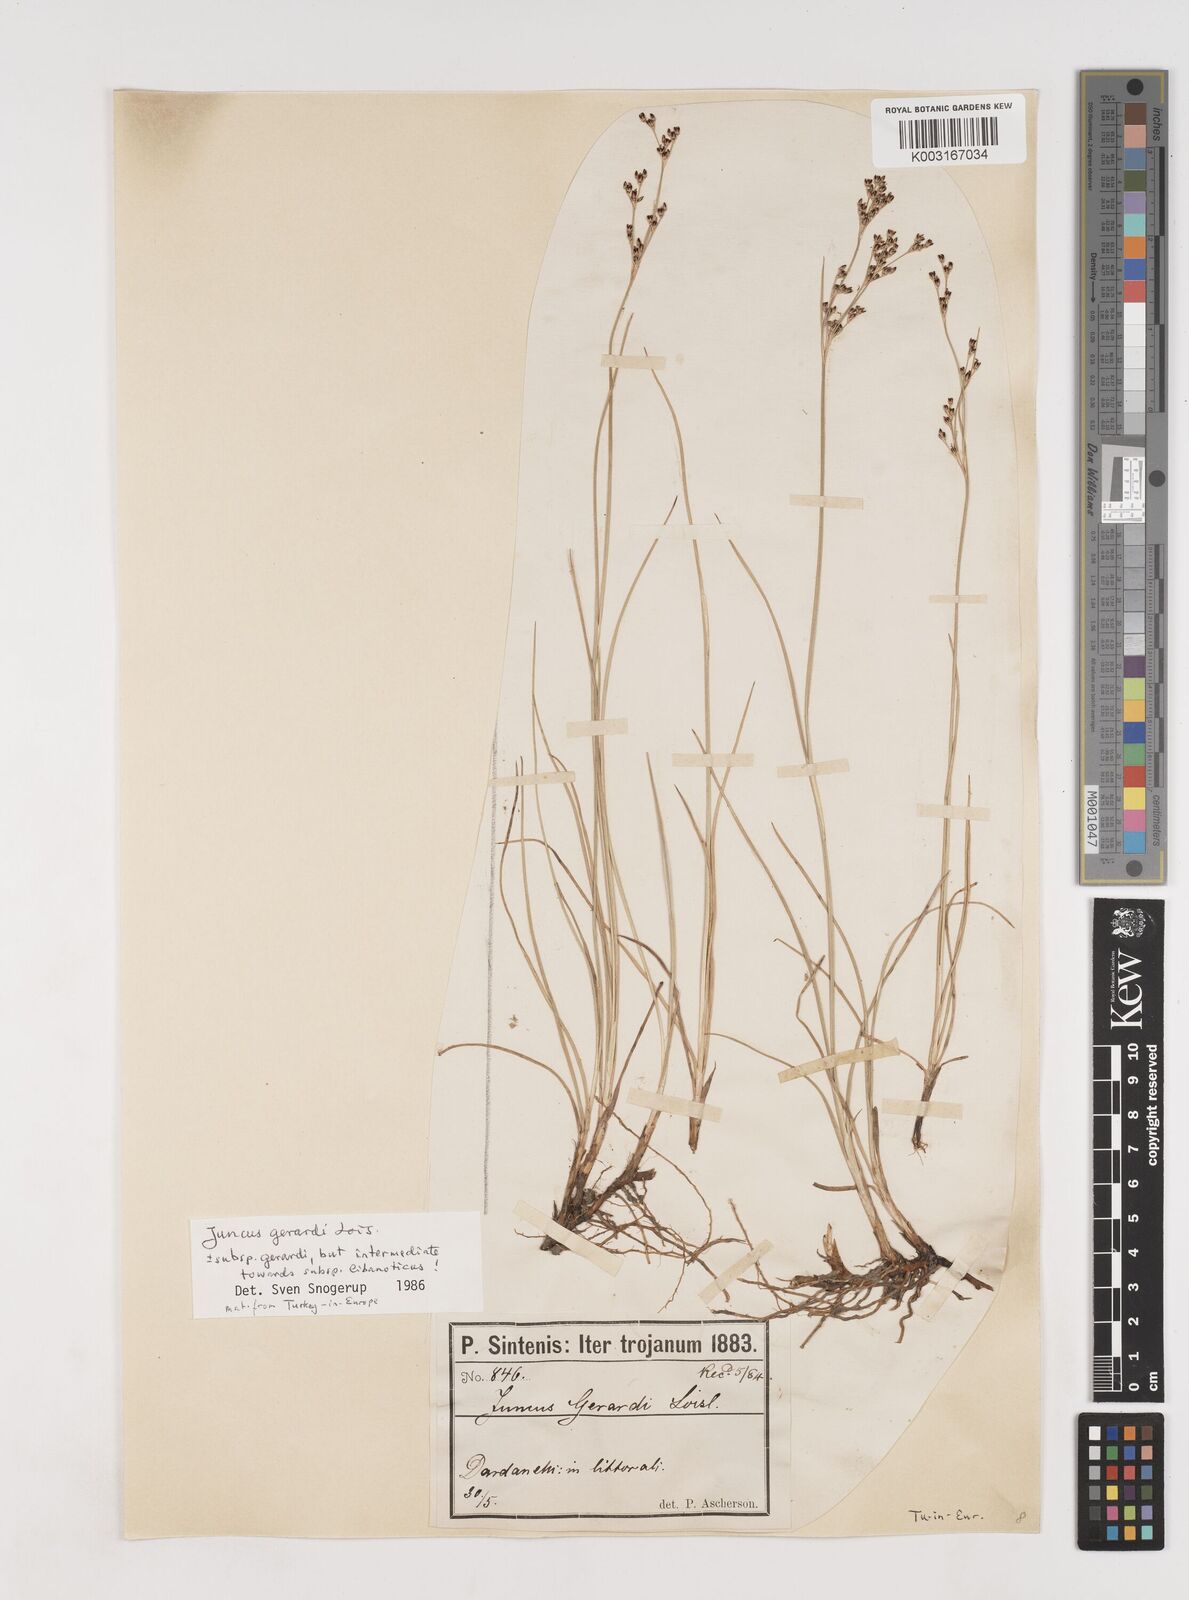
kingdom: Plantae
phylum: Tracheophyta
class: Liliopsida
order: Poales
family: Juncaceae
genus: Juncus
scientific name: Juncus gerardi
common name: Saltmarsh rush
